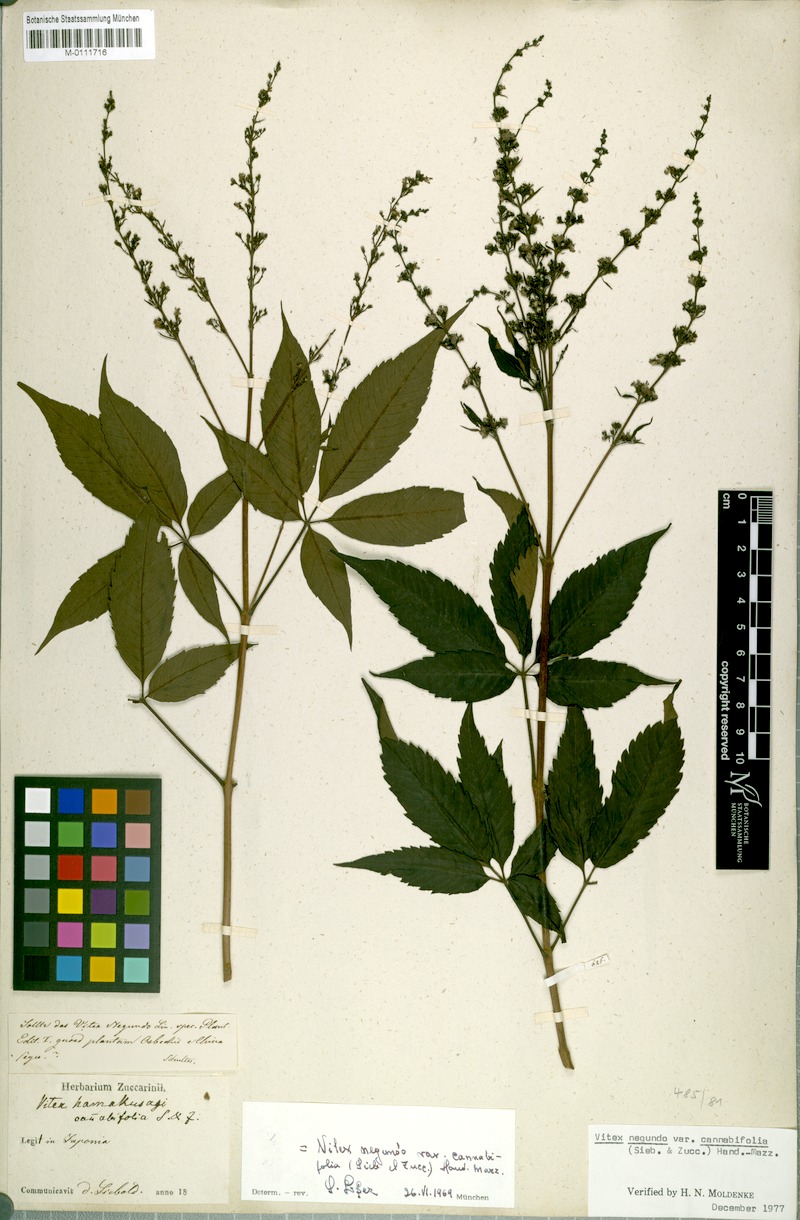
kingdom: Plantae
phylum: Tracheophyta
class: Magnoliopsida
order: Lamiales
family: Lamiaceae
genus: Vitex
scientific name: Vitex negundo
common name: Chinese chastetree
